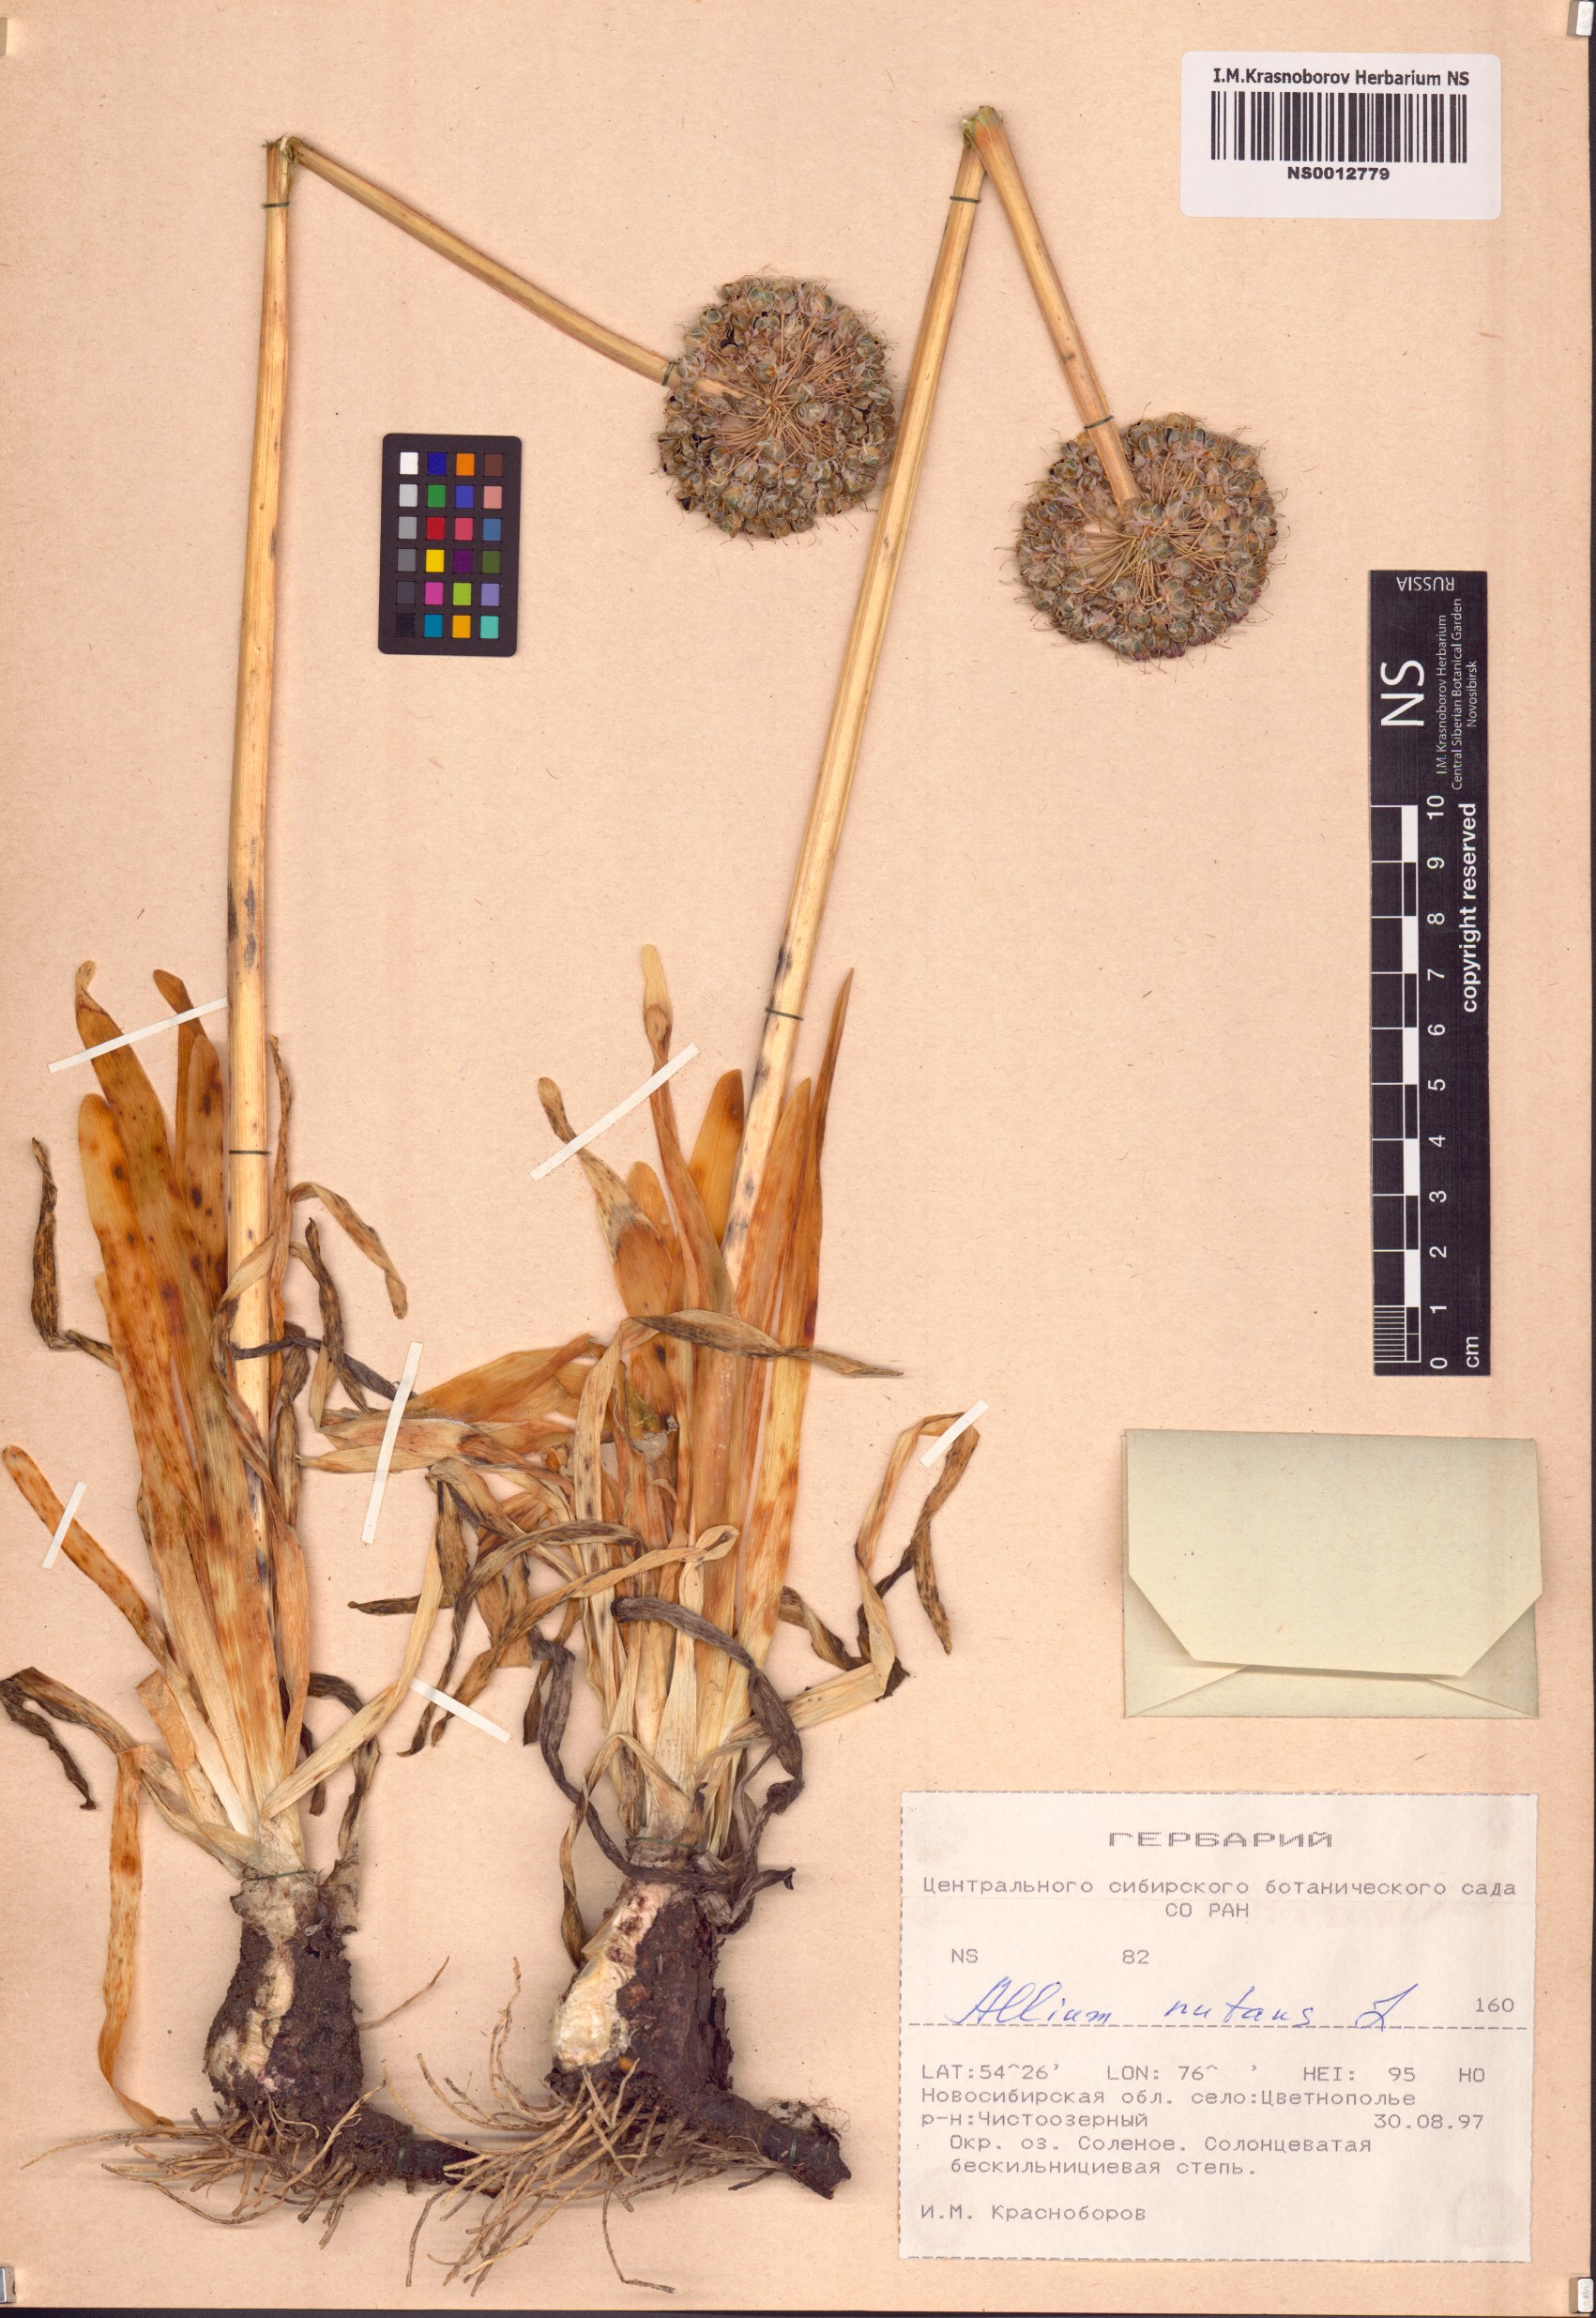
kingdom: Plantae
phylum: Tracheophyta
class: Liliopsida
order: Asparagales
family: Amaryllidaceae
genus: Allium
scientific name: Allium nutans
